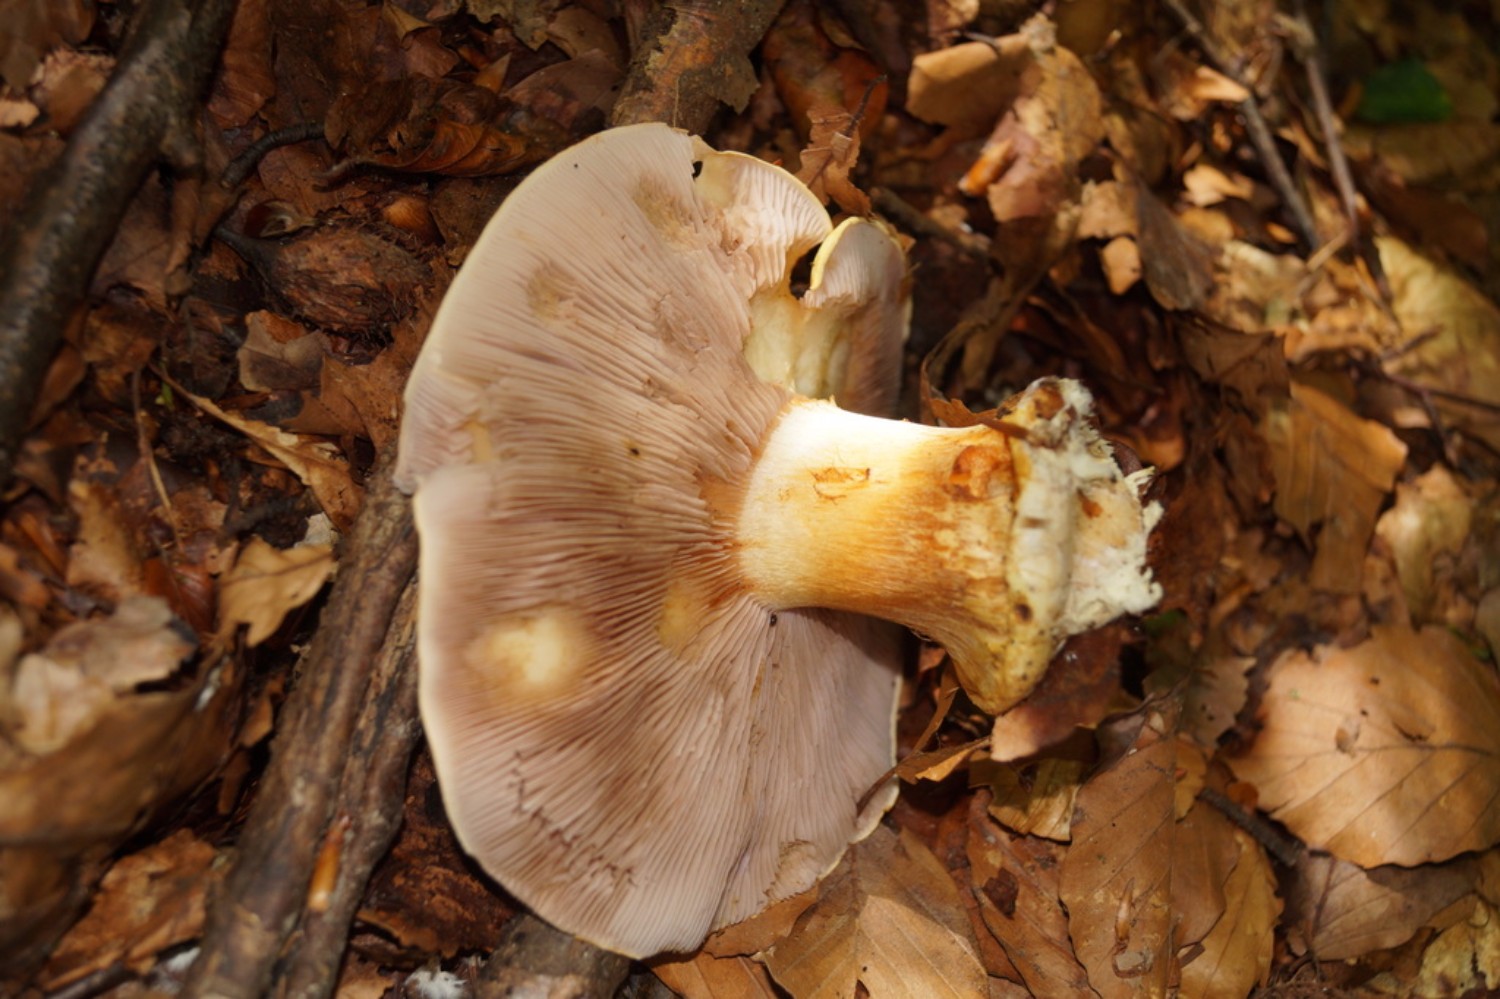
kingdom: Fungi
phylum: Basidiomycota
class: Agaricomycetes
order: Agaricales
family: Cortinariaceae
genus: Calonarius
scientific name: Calonarius callochrous
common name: lillabladet slørhat
